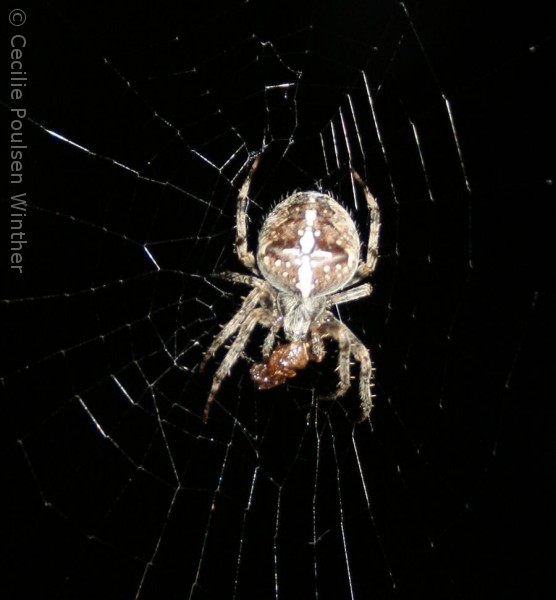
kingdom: Animalia
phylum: Arthropoda
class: Arachnida
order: Araneae
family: Araneidae
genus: Araneus
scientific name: Araneus diadematus
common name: Korsedderkop
